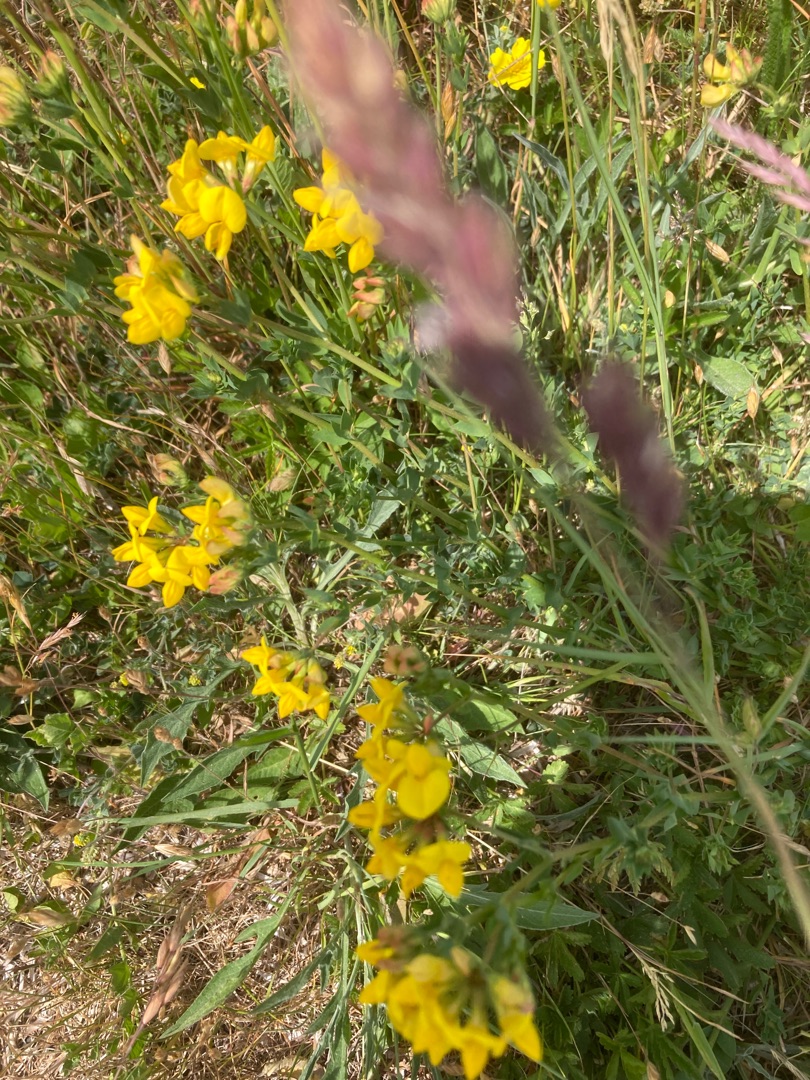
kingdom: Plantae
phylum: Tracheophyta
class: Magnoliopsida
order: Fabales
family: Fabaceae
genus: Lotus
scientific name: Lotus corniculatus
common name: Almindelig kællingetand
